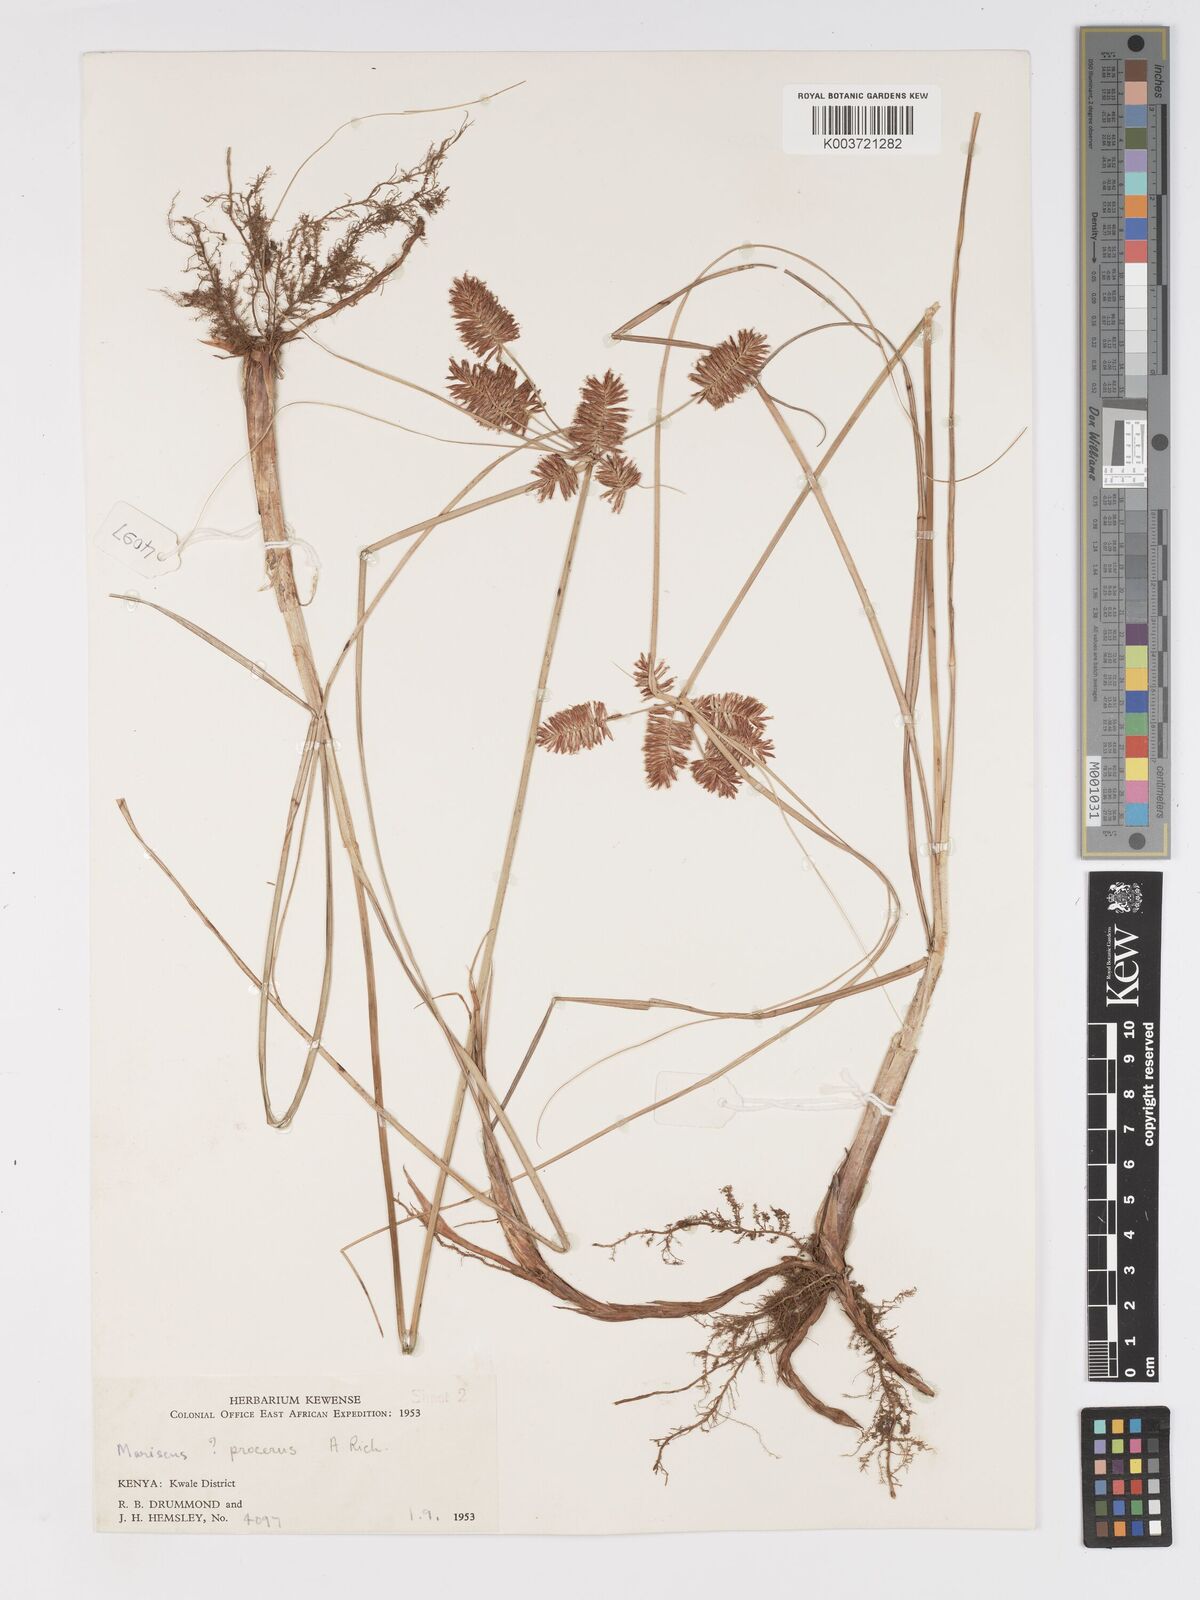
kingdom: Plantae
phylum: Tracheophyta
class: Liliopsida
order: Poales
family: Cyperaceae
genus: Cyperus
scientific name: Cyperus oblongoincrassatus
